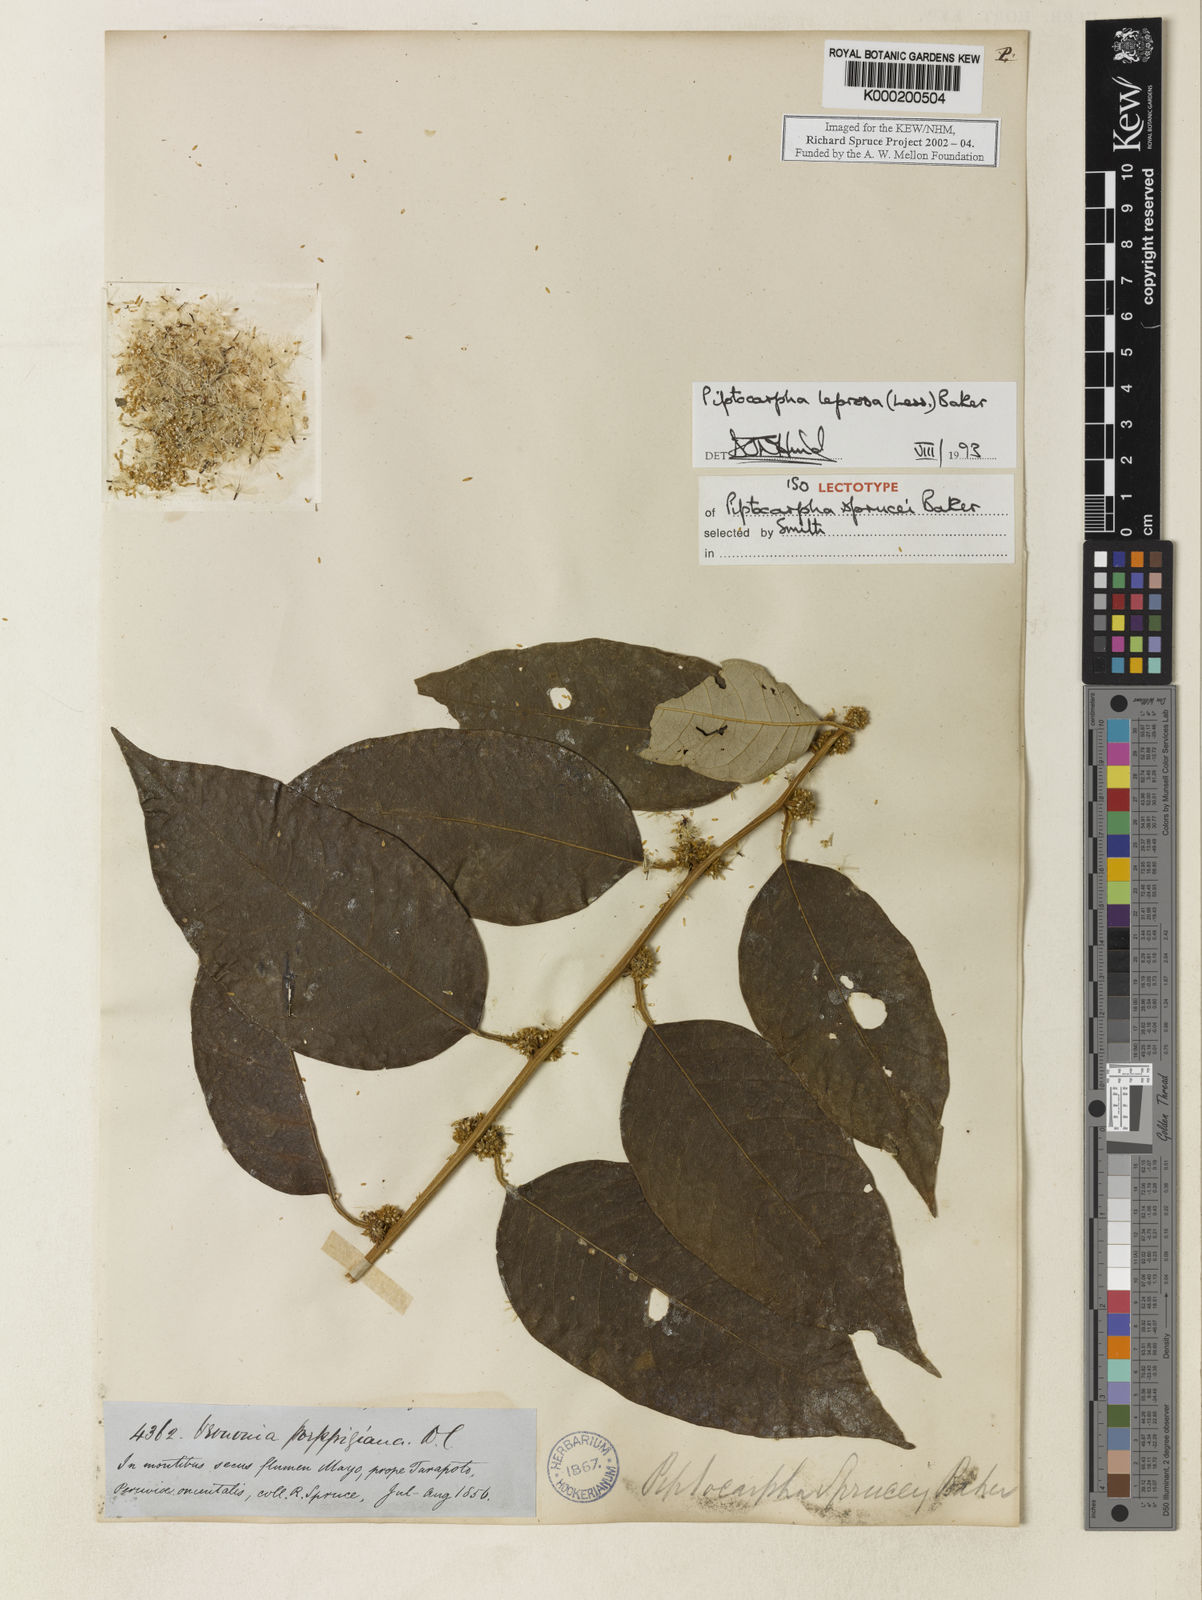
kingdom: Plantae
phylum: Tracheophyta
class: Magnoliopsida
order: Asterales
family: Asteraceae
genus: Piptocarpha
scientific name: Piptocarpha leprosa
